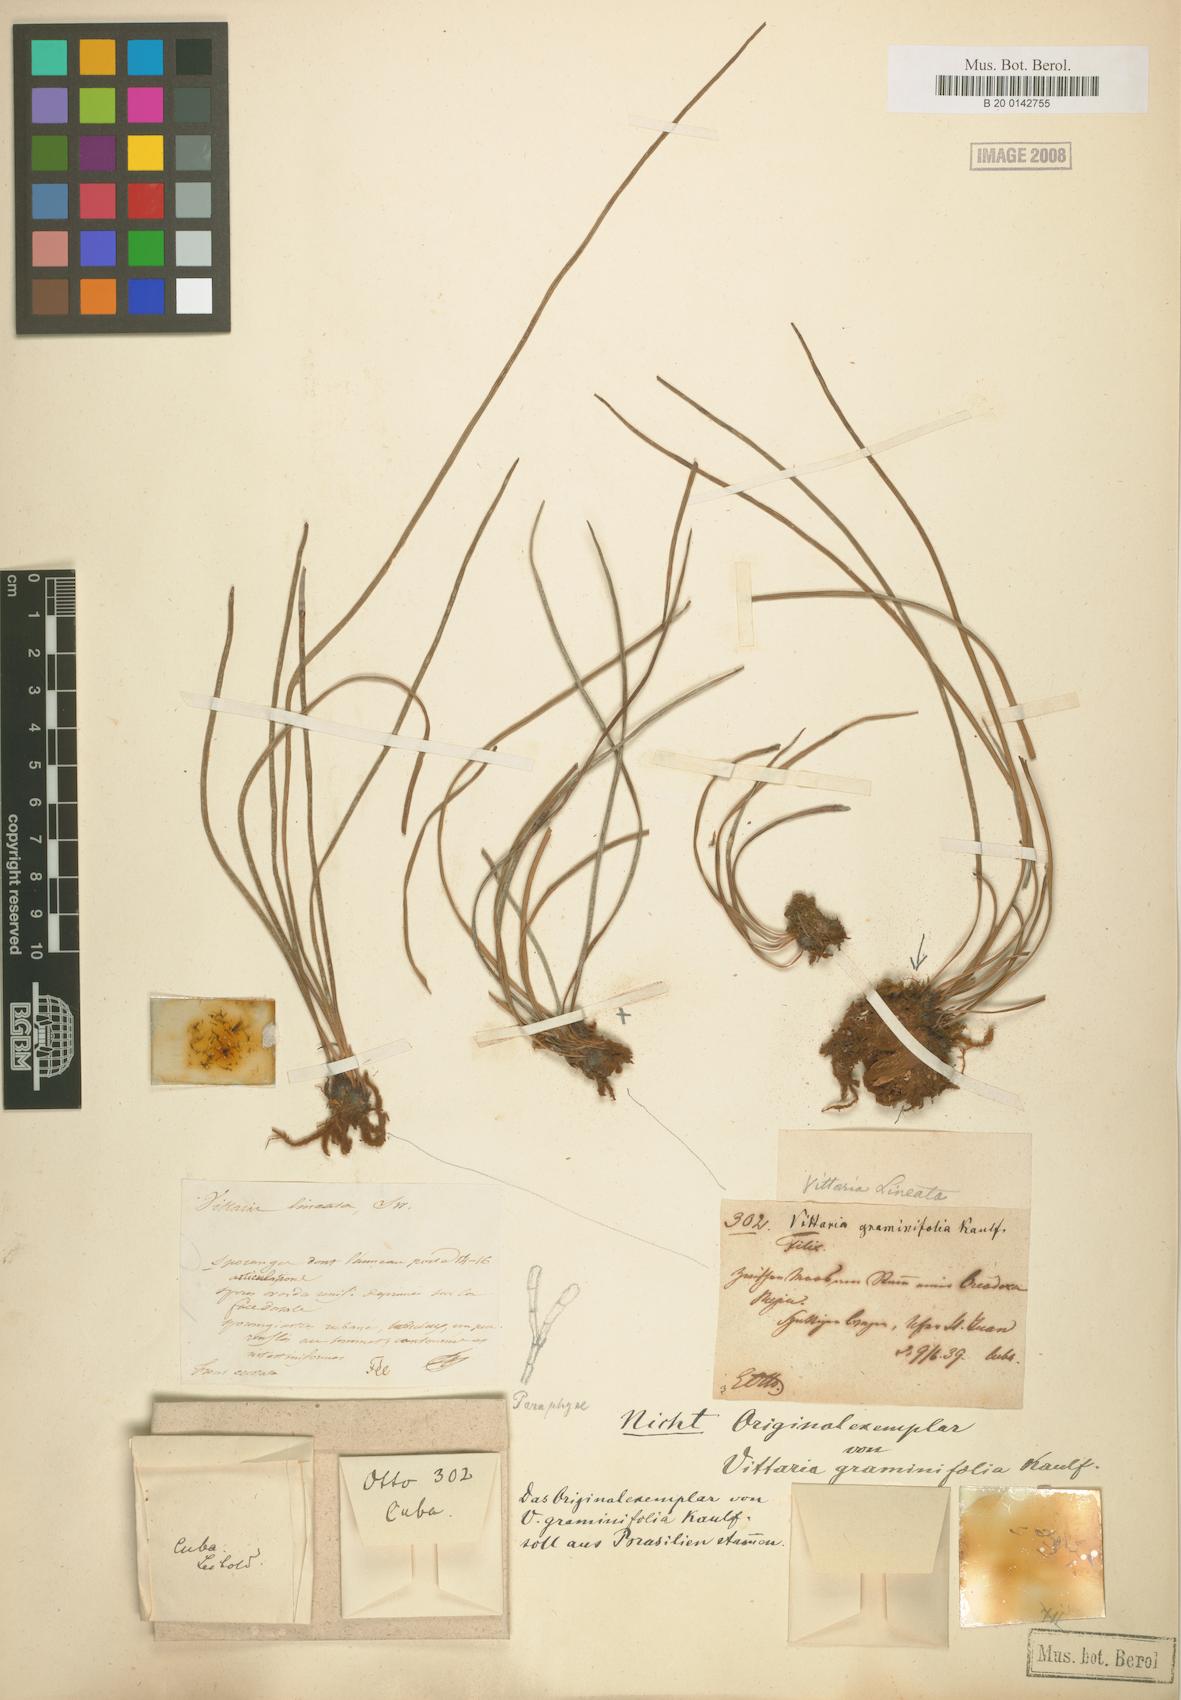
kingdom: Plantae
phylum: Tracheophyta
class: Polypodiopsida
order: Polypodiales
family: Pteridaceae
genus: Vittaria
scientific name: Vittaria lineata
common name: Shoestring fern
